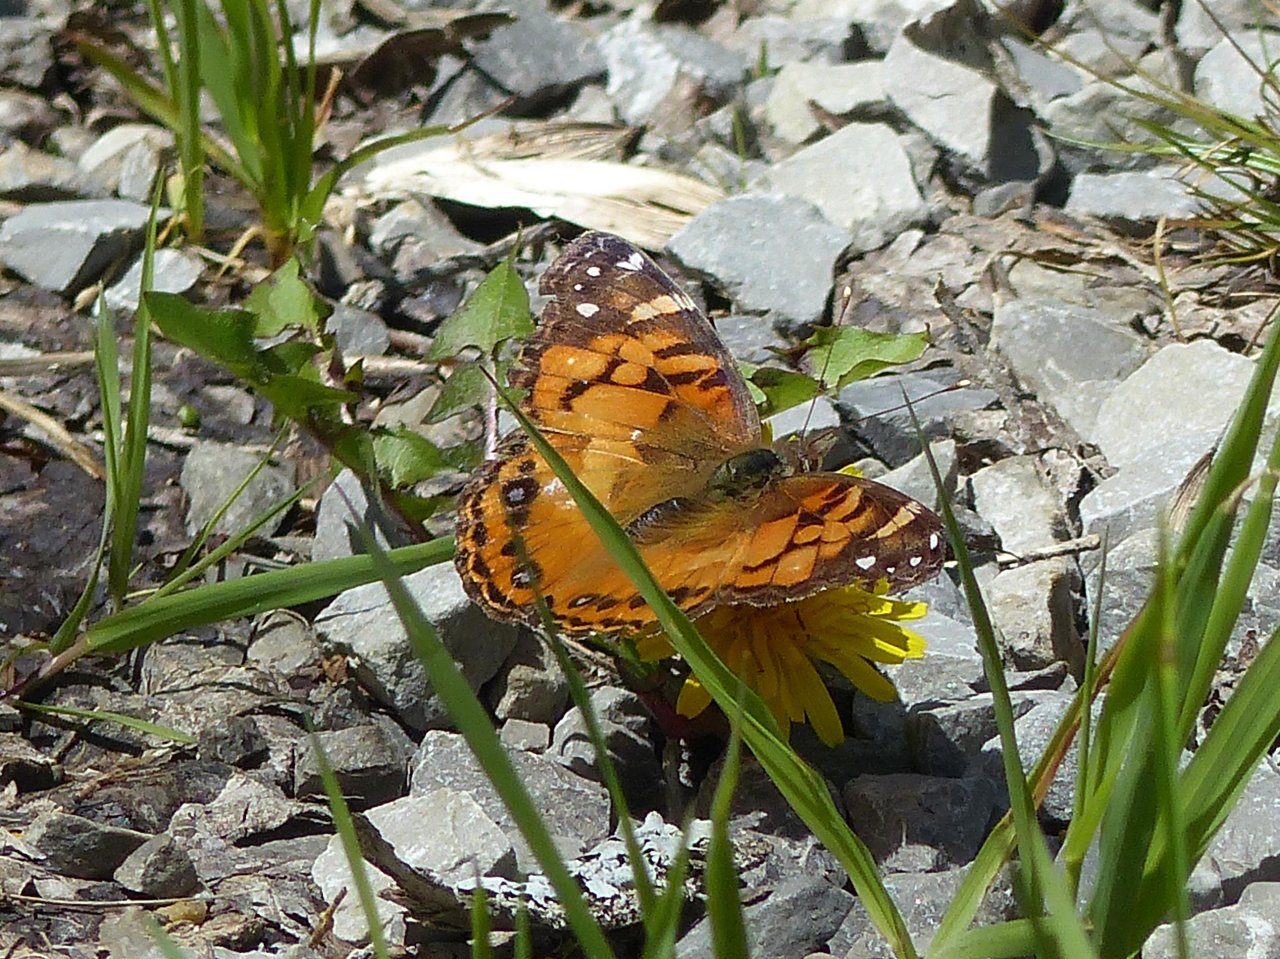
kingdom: Animalia
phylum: Arthropoda
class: Insecta
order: Lepidoptera
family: Nymphalidae
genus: Vanessa
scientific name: Vanessa virginiensis
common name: American Lady
